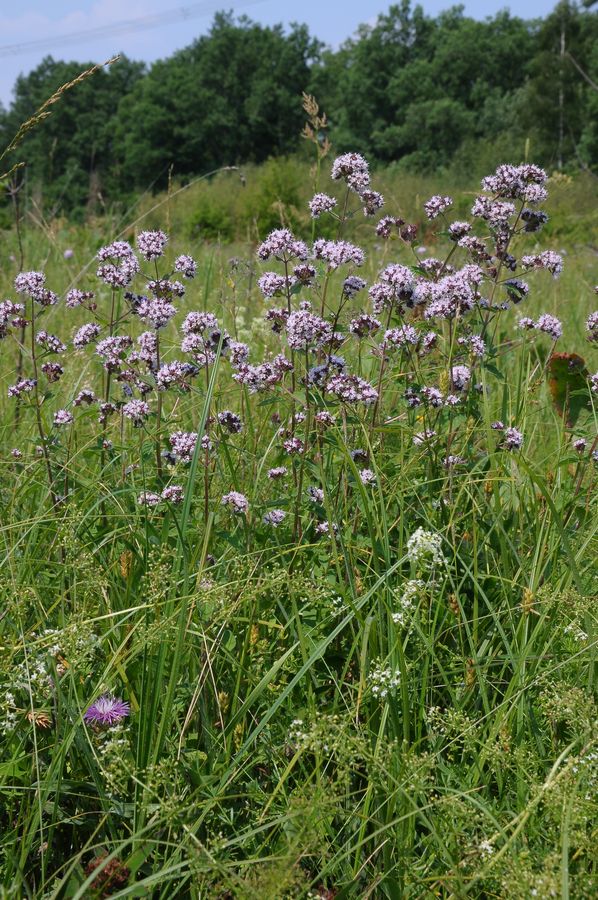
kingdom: Plantae
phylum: Tracheophyta
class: Magnoliopsida
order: Lamiales
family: Lamiaceae
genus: Origanum
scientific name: Origanum vulgare
